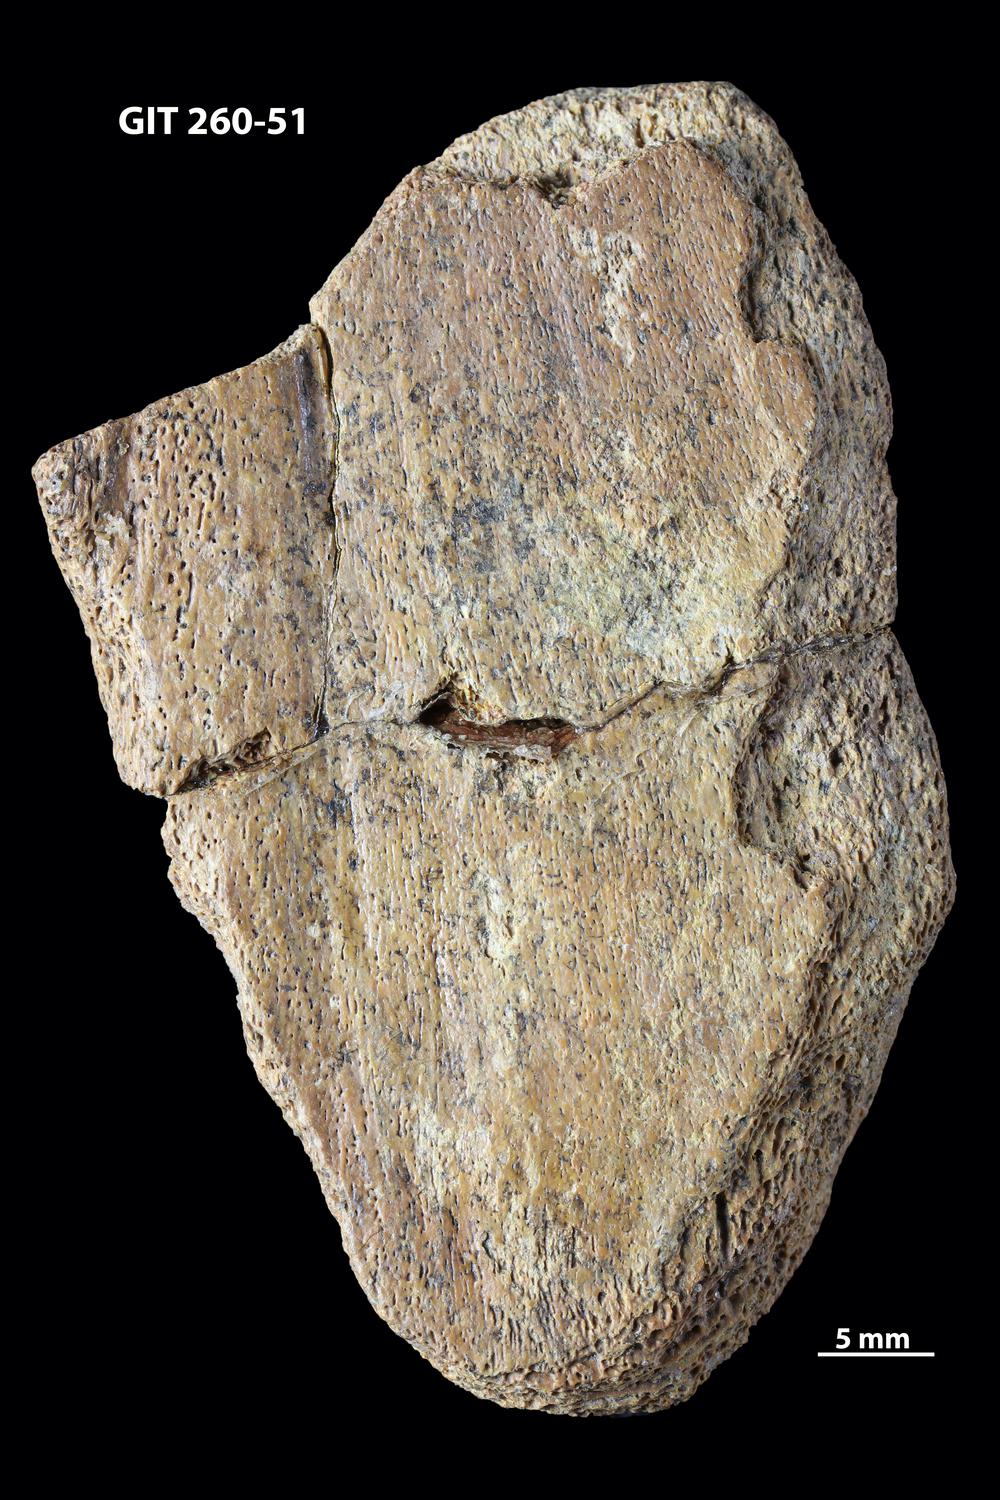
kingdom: Animalia
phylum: Chordata
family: Homostiidae
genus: Homostius
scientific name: Homostius
